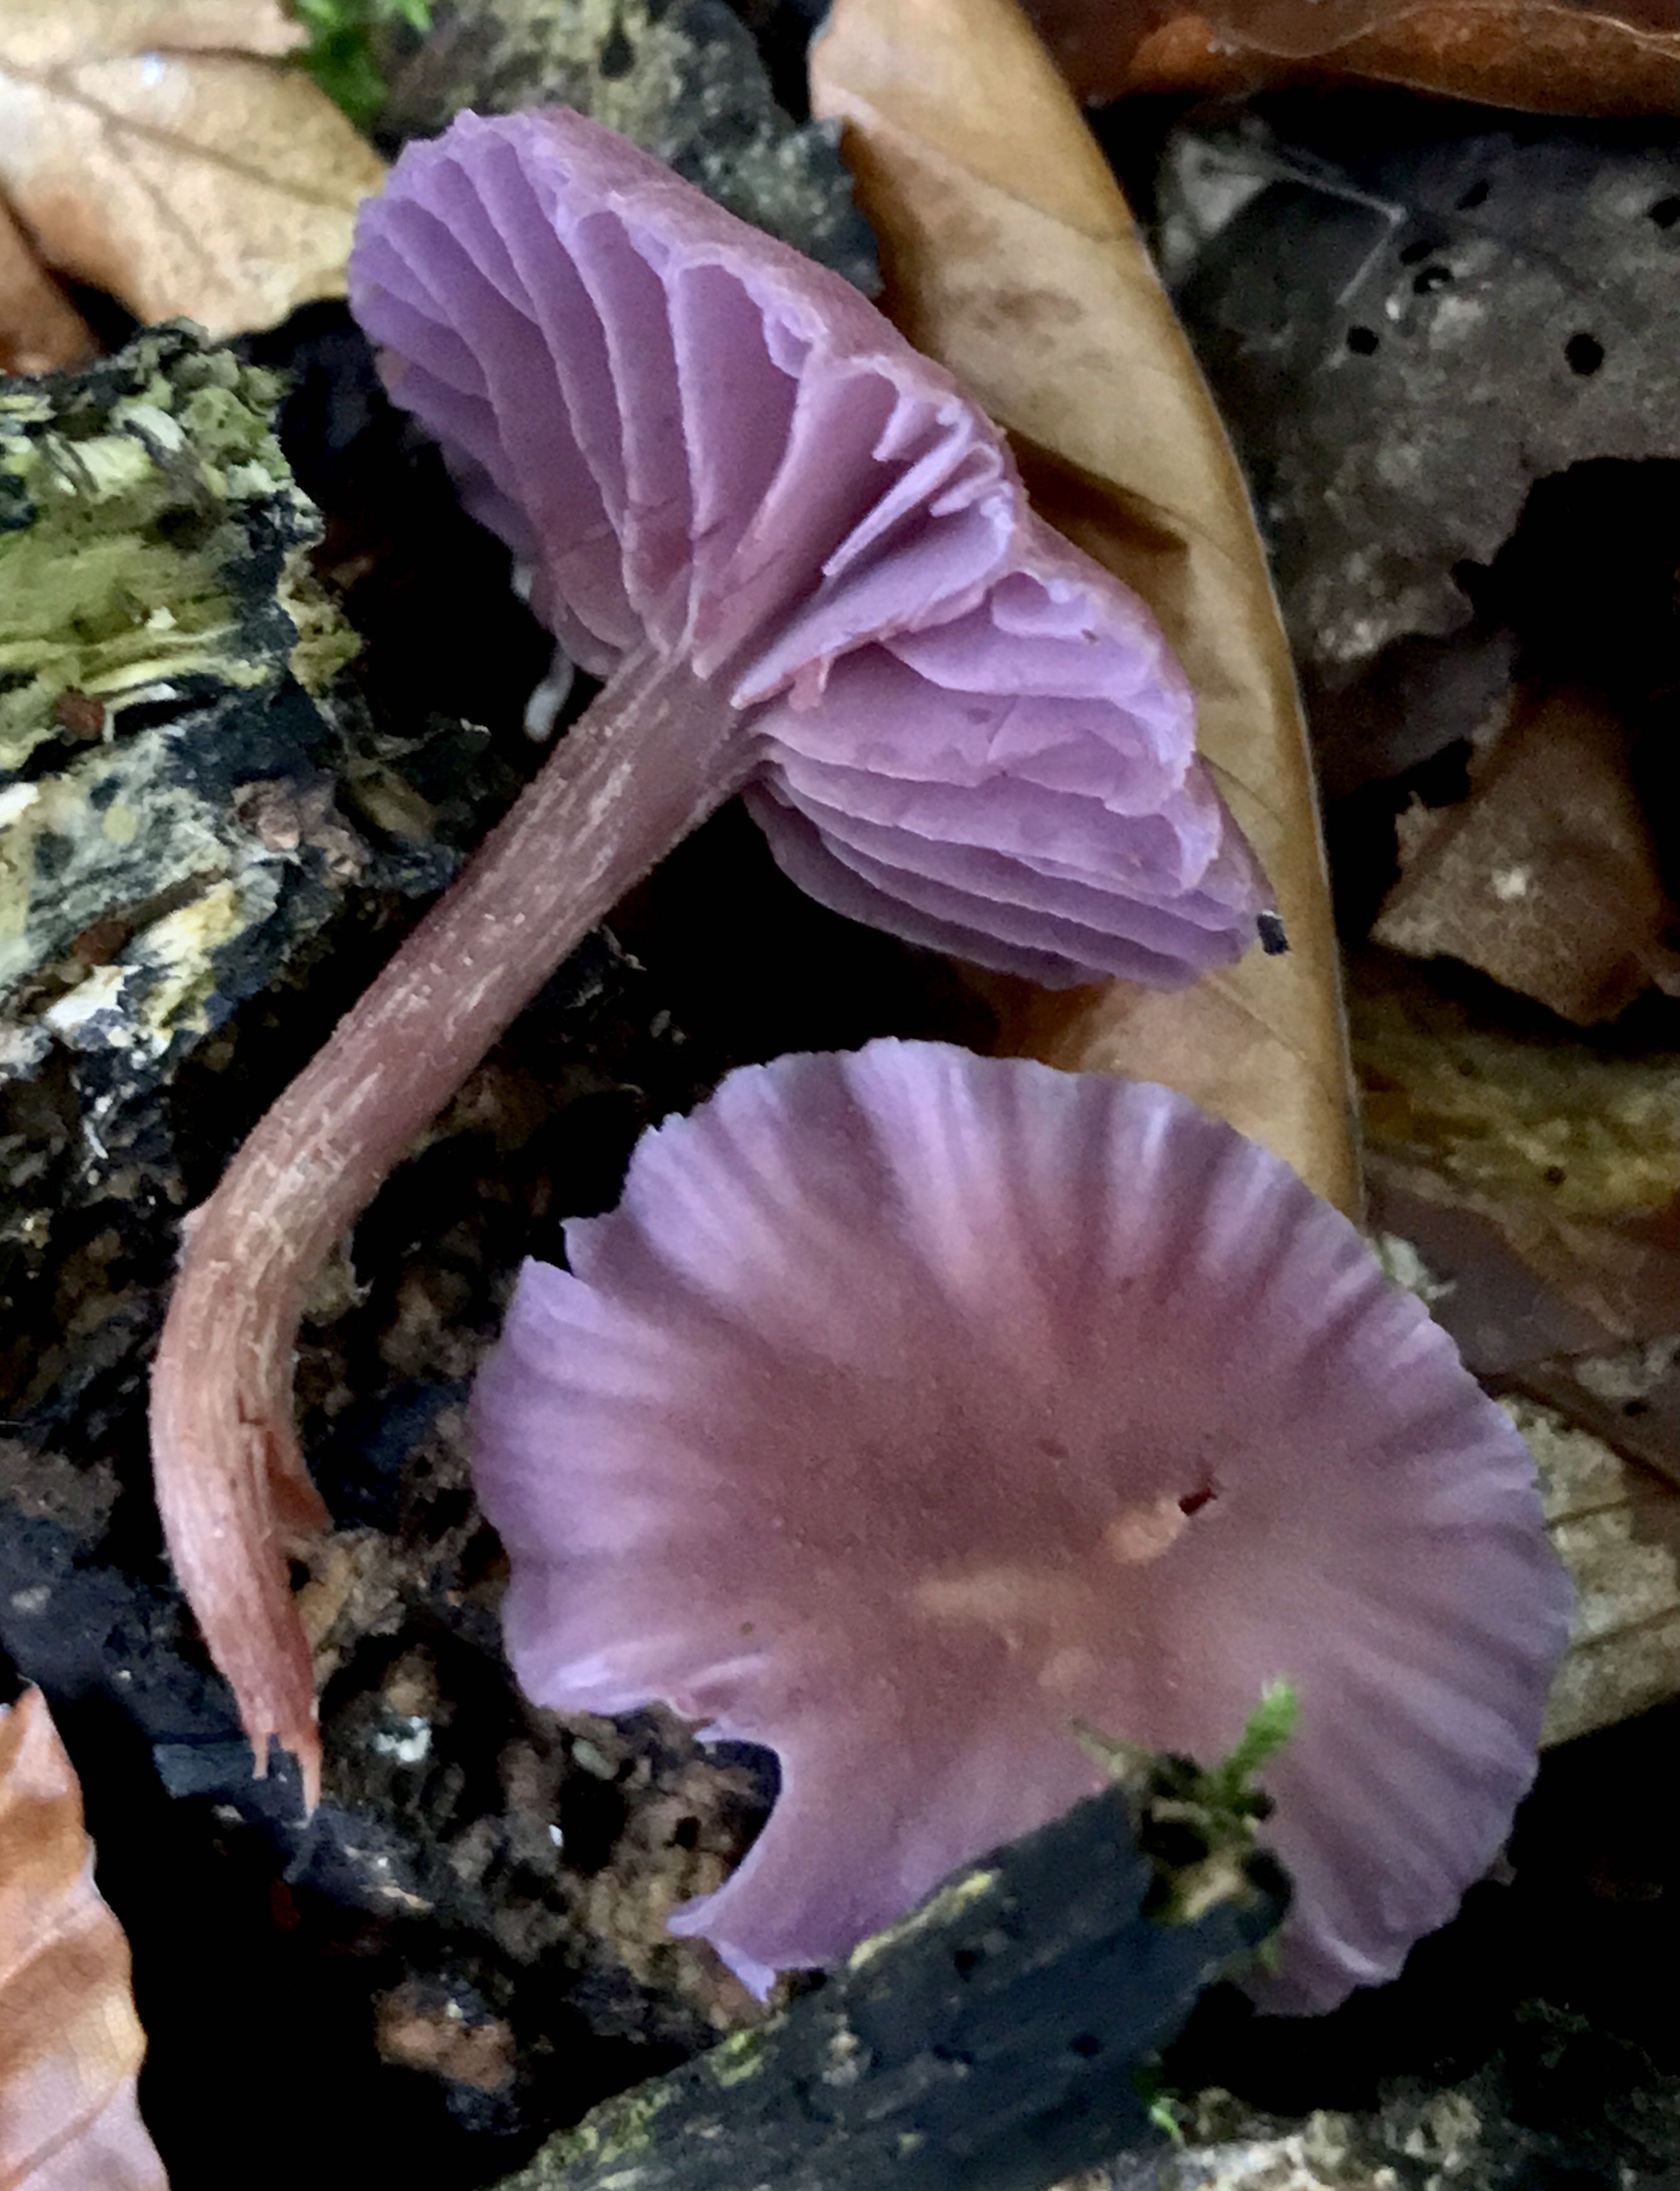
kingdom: Fungi
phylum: Basidiomycota
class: Agaricomycetes
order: Agaricales
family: Hydnangiaceae
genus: Laccaria
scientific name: Laccaria amethystina
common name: violet ametysthat
